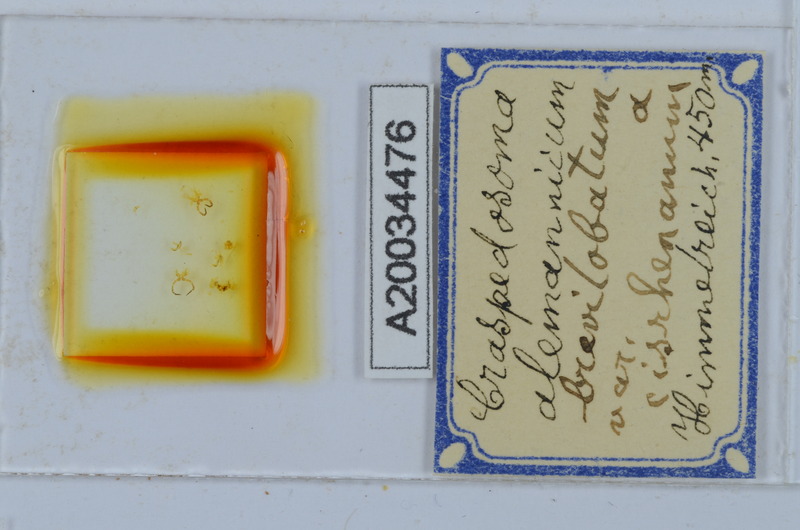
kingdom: Animalia
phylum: Arthropoda
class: Diplopoda
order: Chordeumatida
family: Craspedosomatidae
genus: Craspedosoma
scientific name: Craspedosoma rawlinsii
